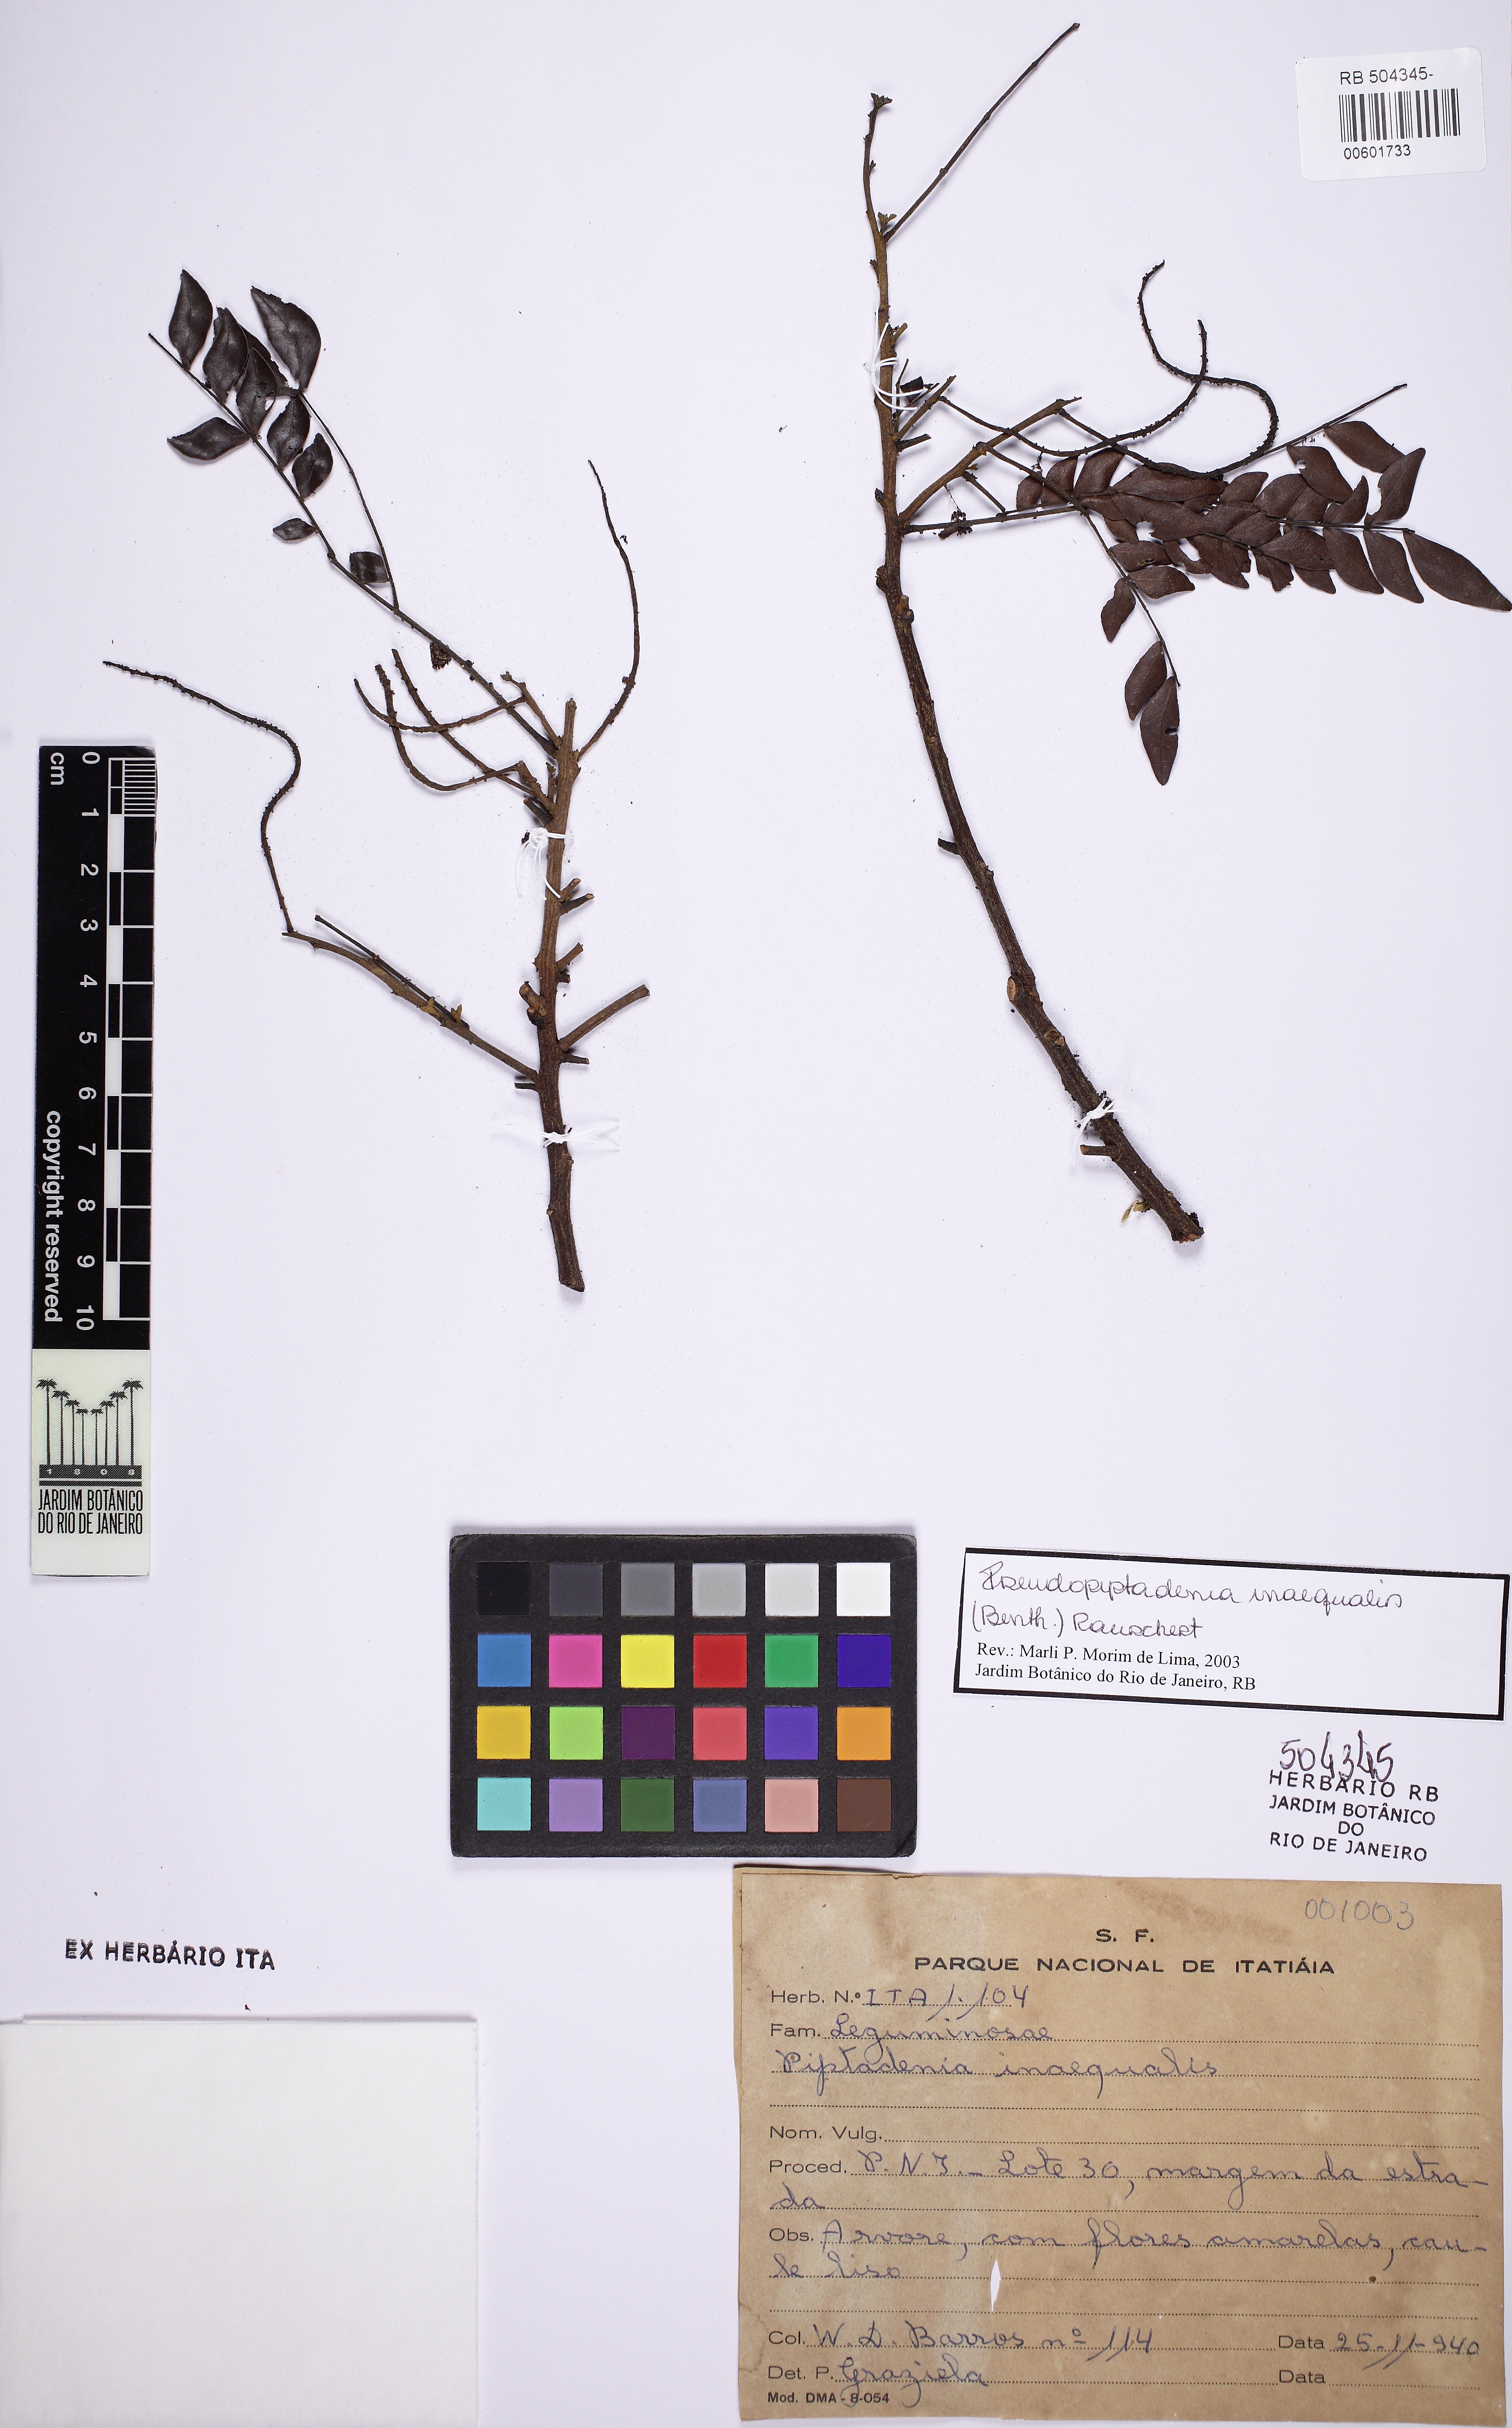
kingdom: Plantae
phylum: Tracheophyta
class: Magnoliopsida
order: Fabales
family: Fabaceae
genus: Pseudopiptadenia
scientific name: Pseudopiptadenia inaequalis
